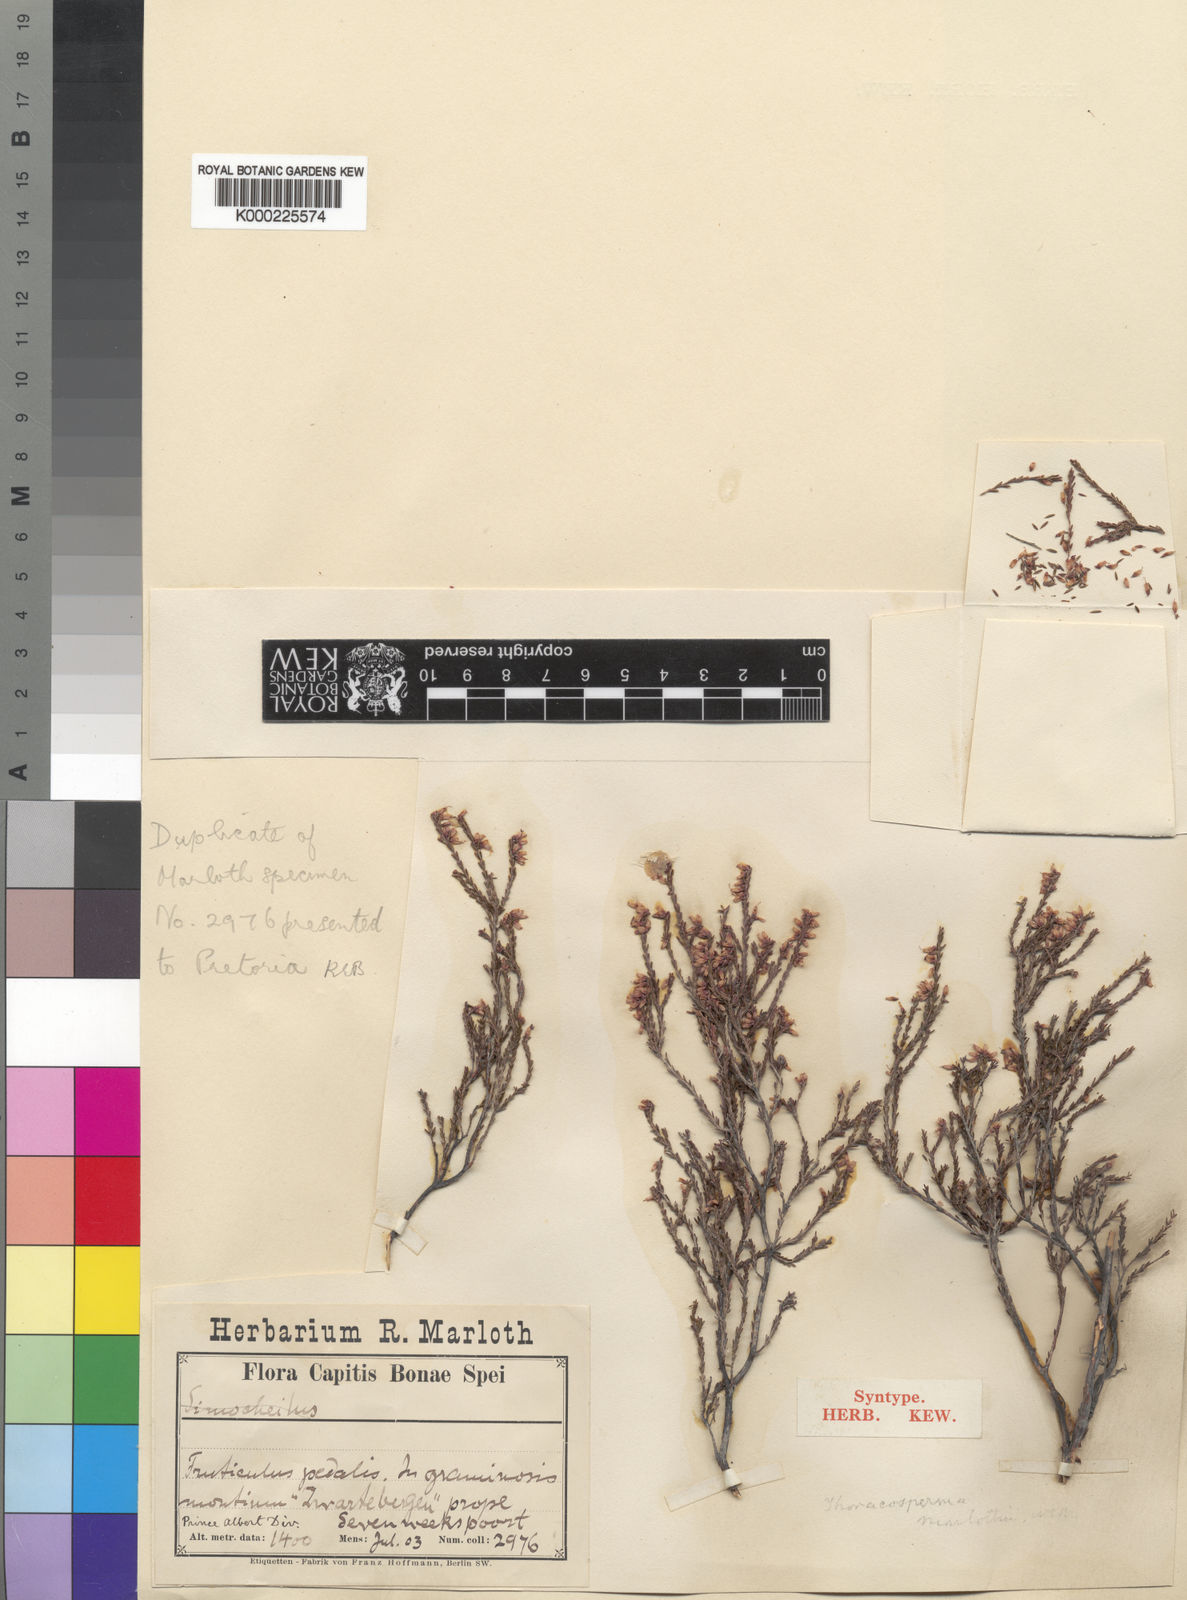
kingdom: Plantae
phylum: Tracheophyta
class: Magnoliopsida
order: Ericales
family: Ericaceae
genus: Erica
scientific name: Erica rosacea
